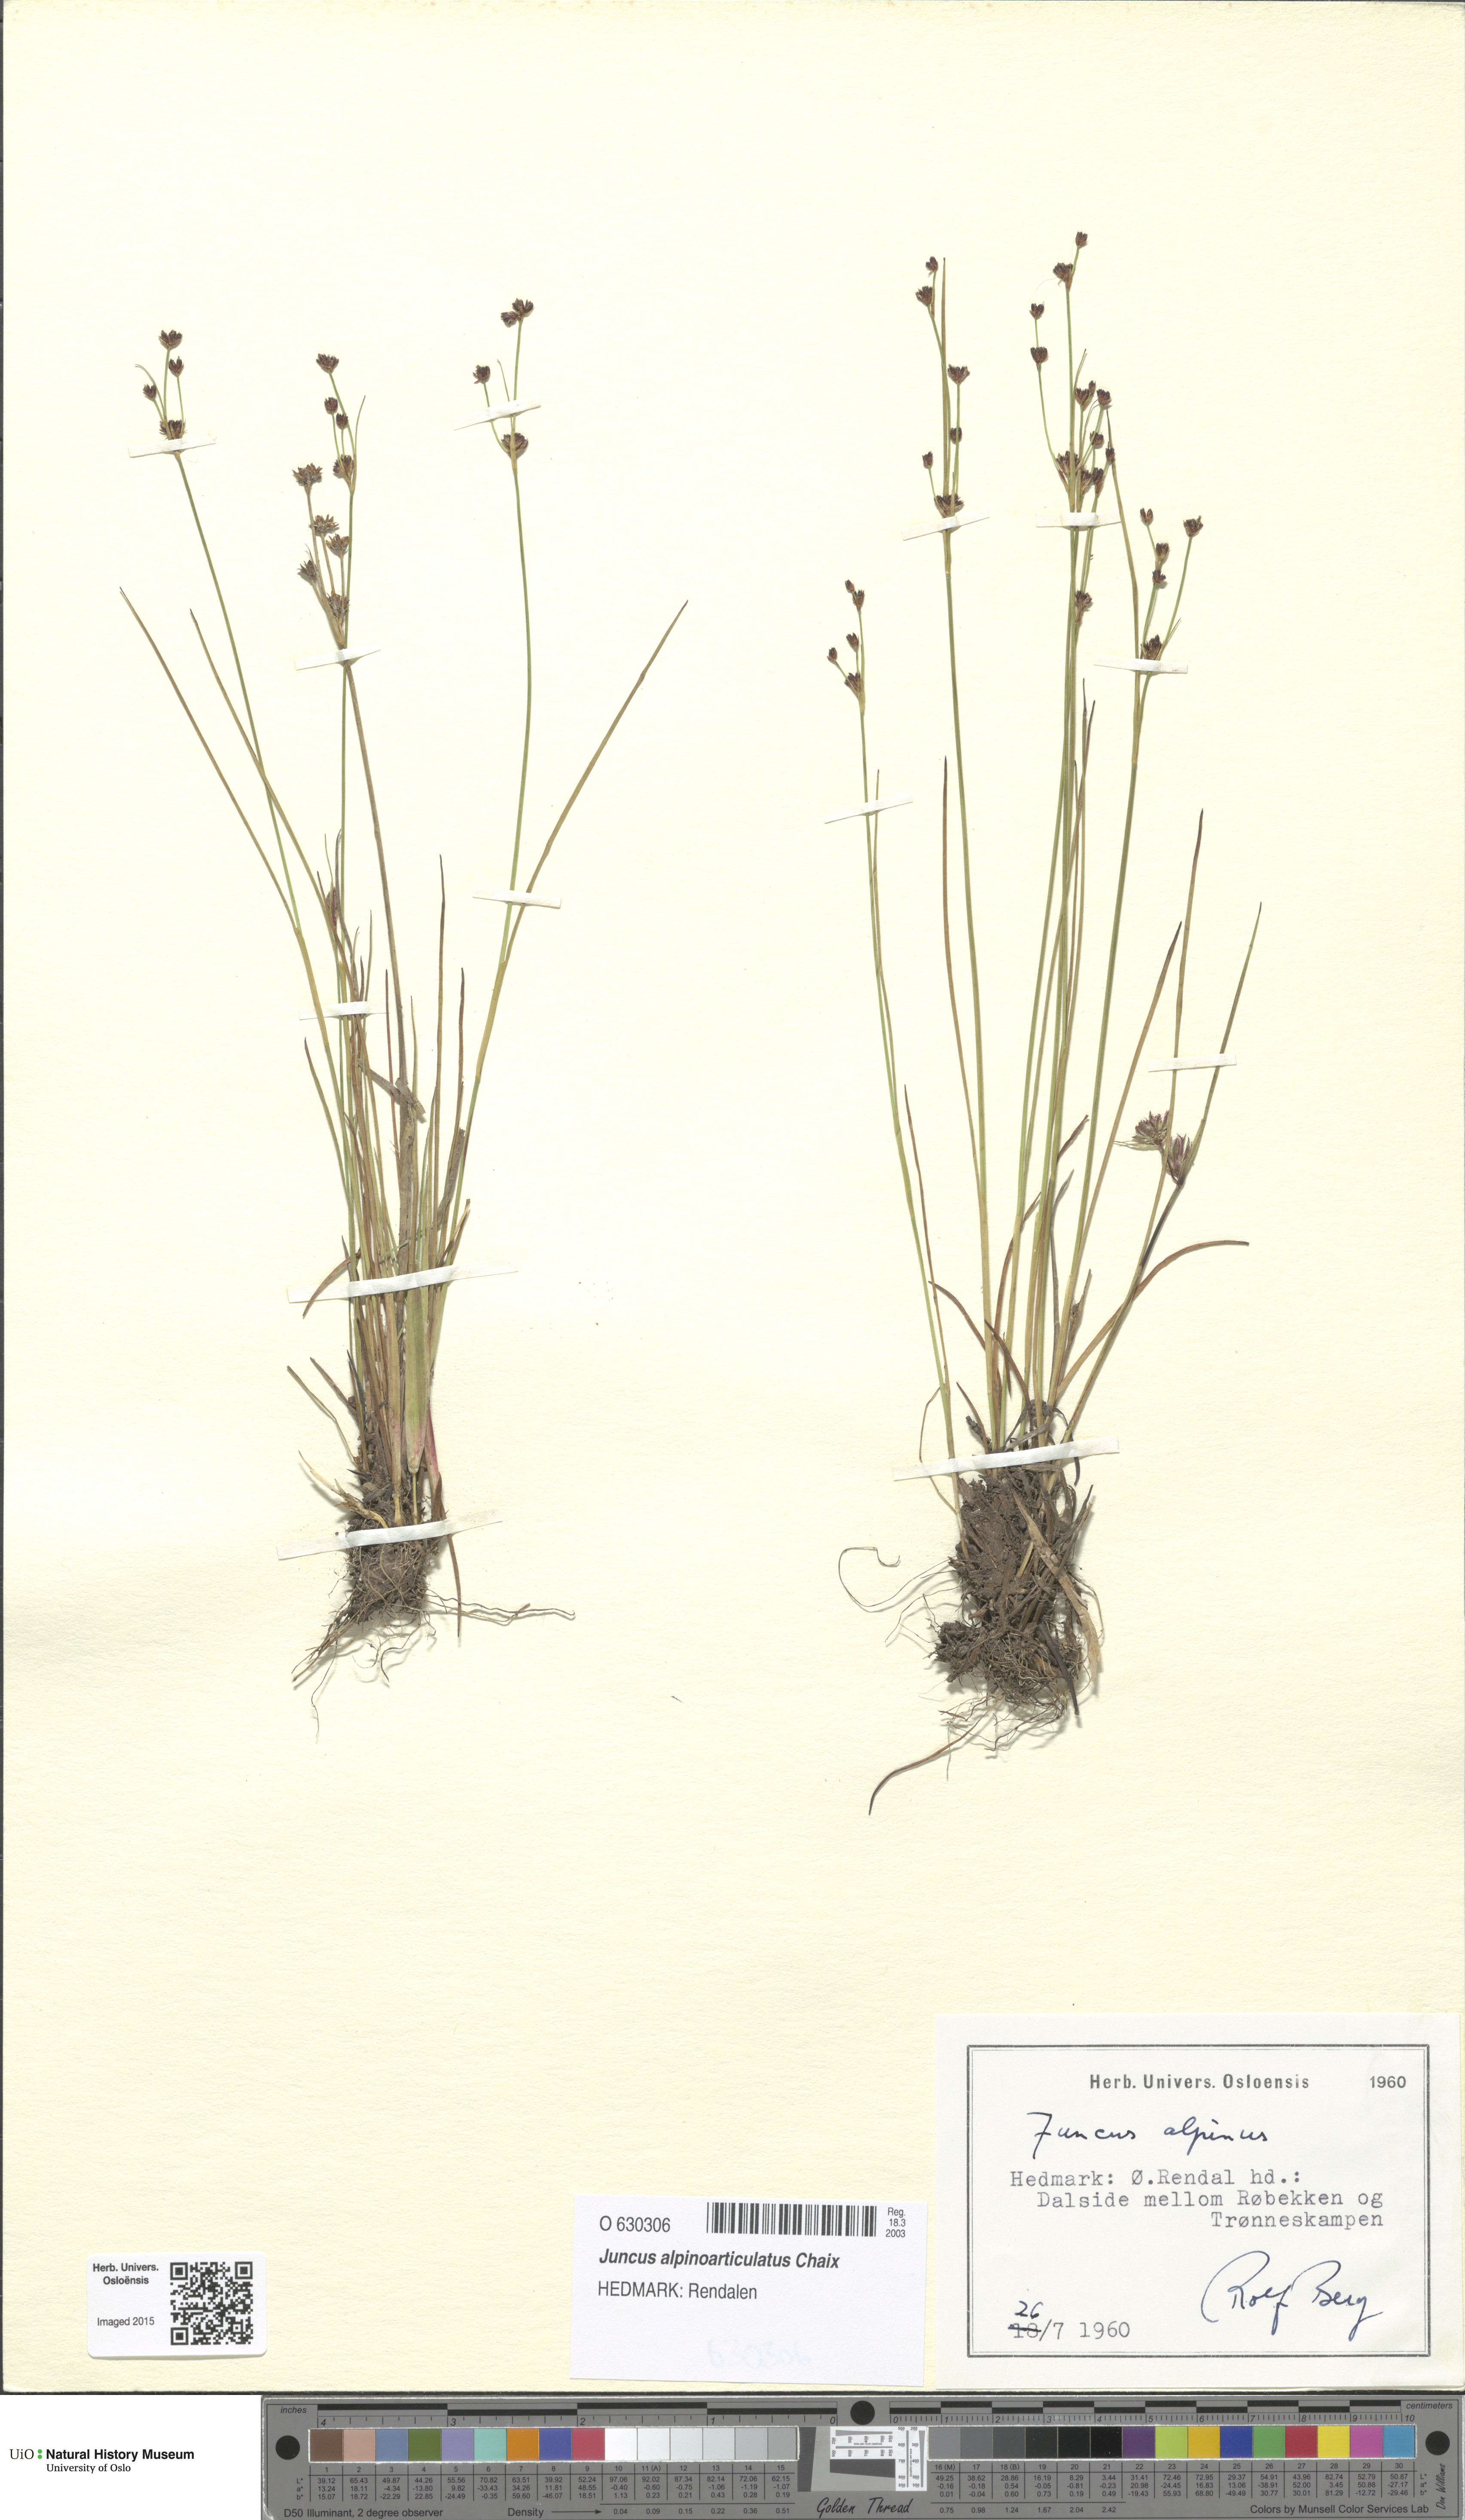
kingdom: Plantae
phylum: Tracheophyta
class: Liliopsida
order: Poales
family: Juncaceae
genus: Juncus
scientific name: Juncus alpinoarticulatus
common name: Alpine rush
